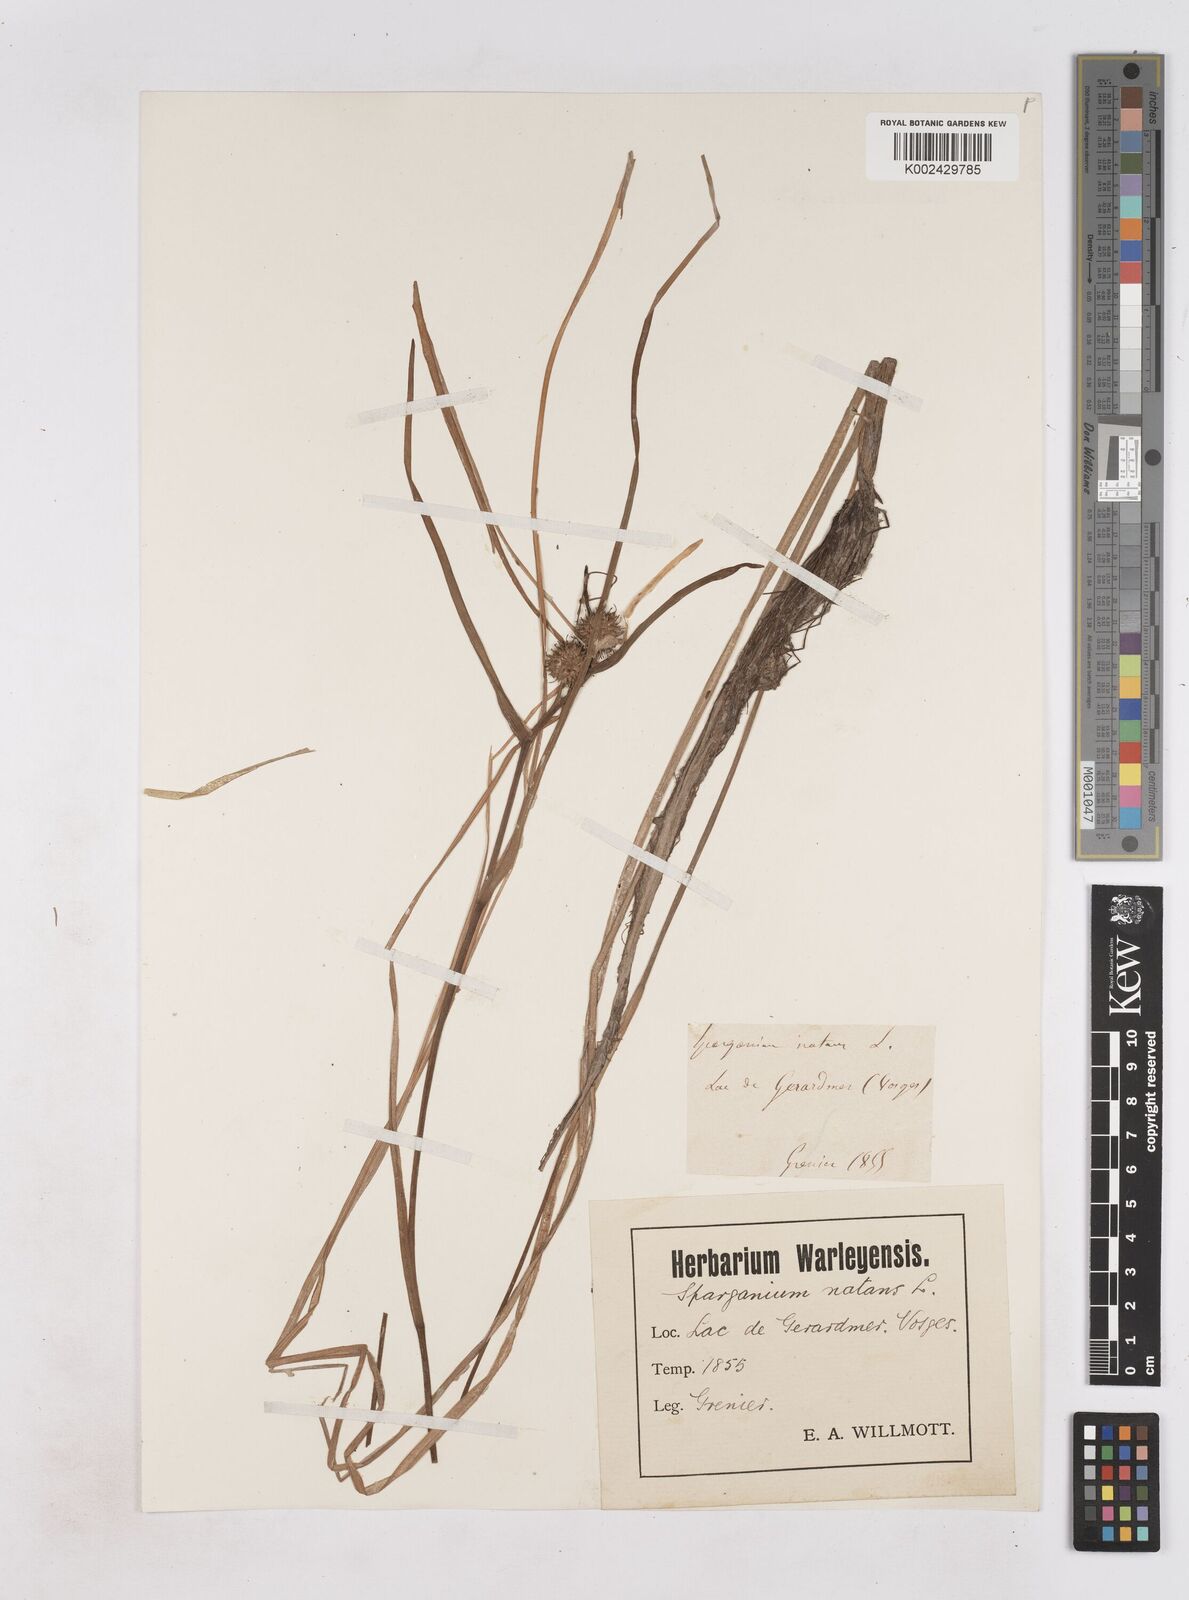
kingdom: Plantae
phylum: Tracheophyta
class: Liliopsida
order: Poales
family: Typhaceae
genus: Sparganium
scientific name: Sparganium angustifolium
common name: Floating bur-reed
